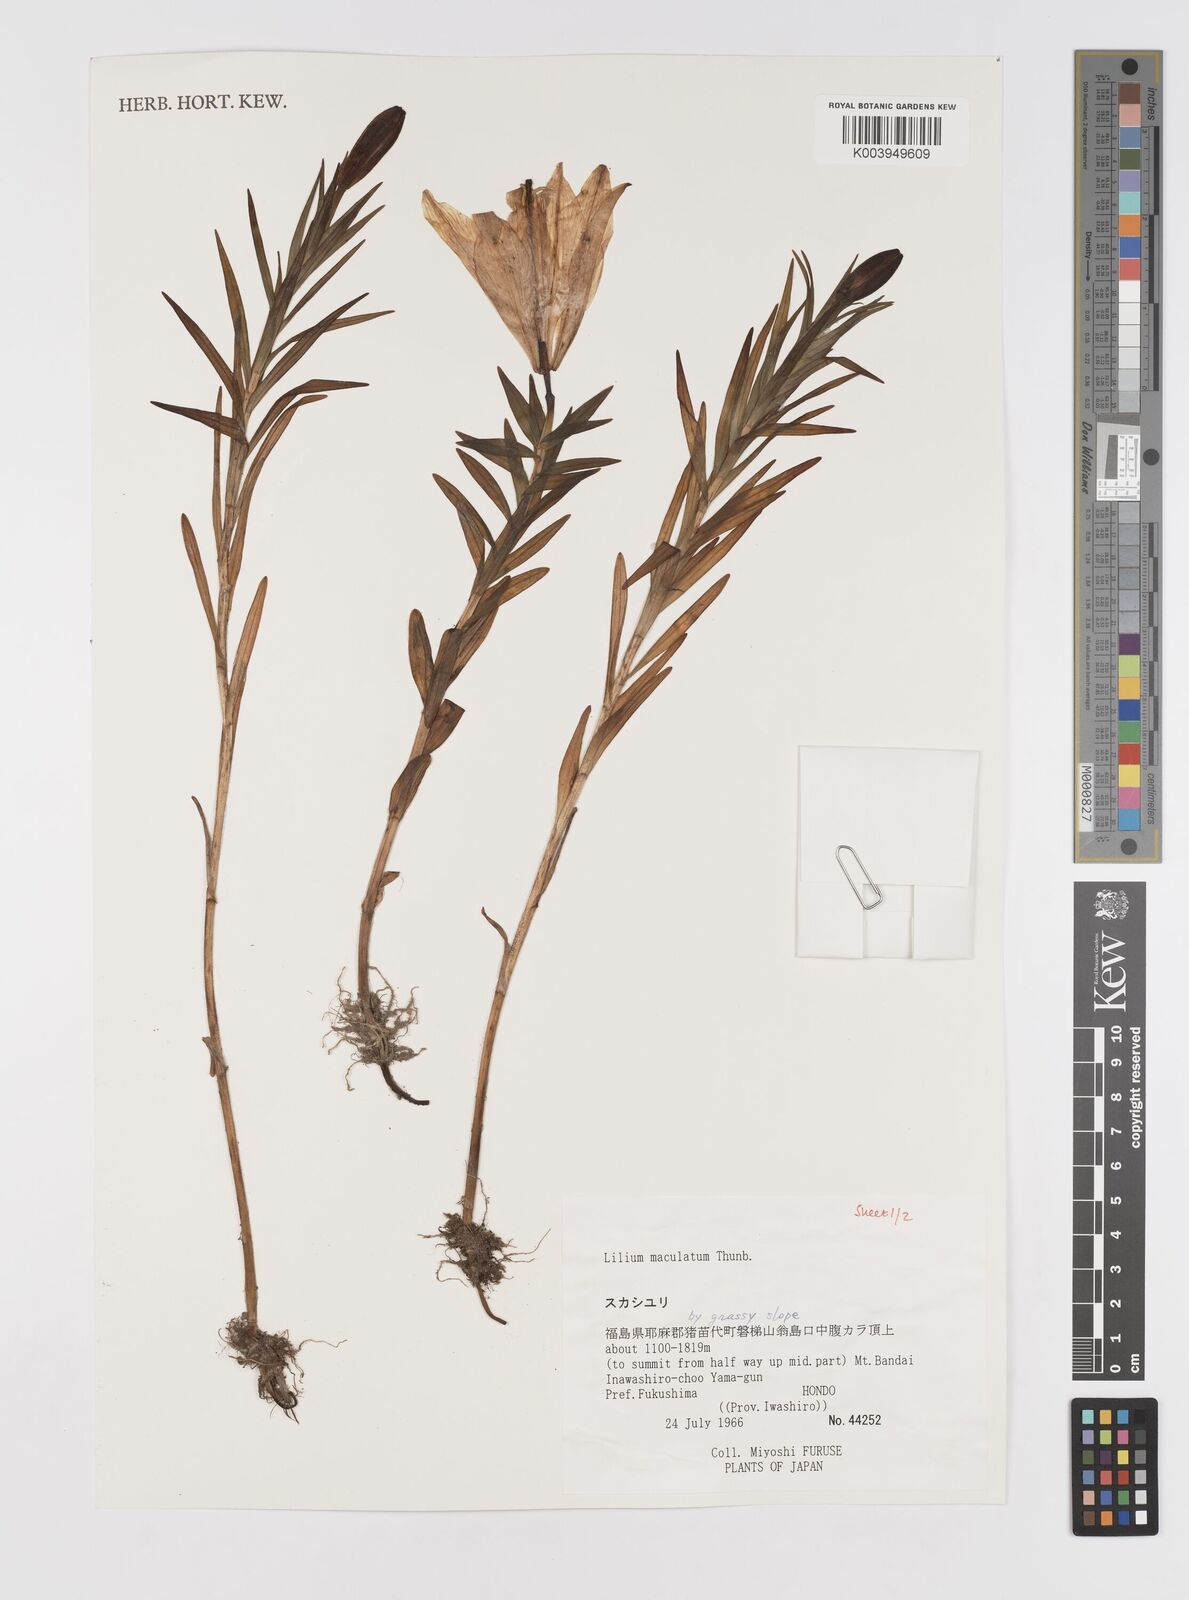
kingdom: Plantae
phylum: Tracheophyta
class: Liliopsida
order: Liliales
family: Liliaceae
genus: Lilium
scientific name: Lilium maculatum
